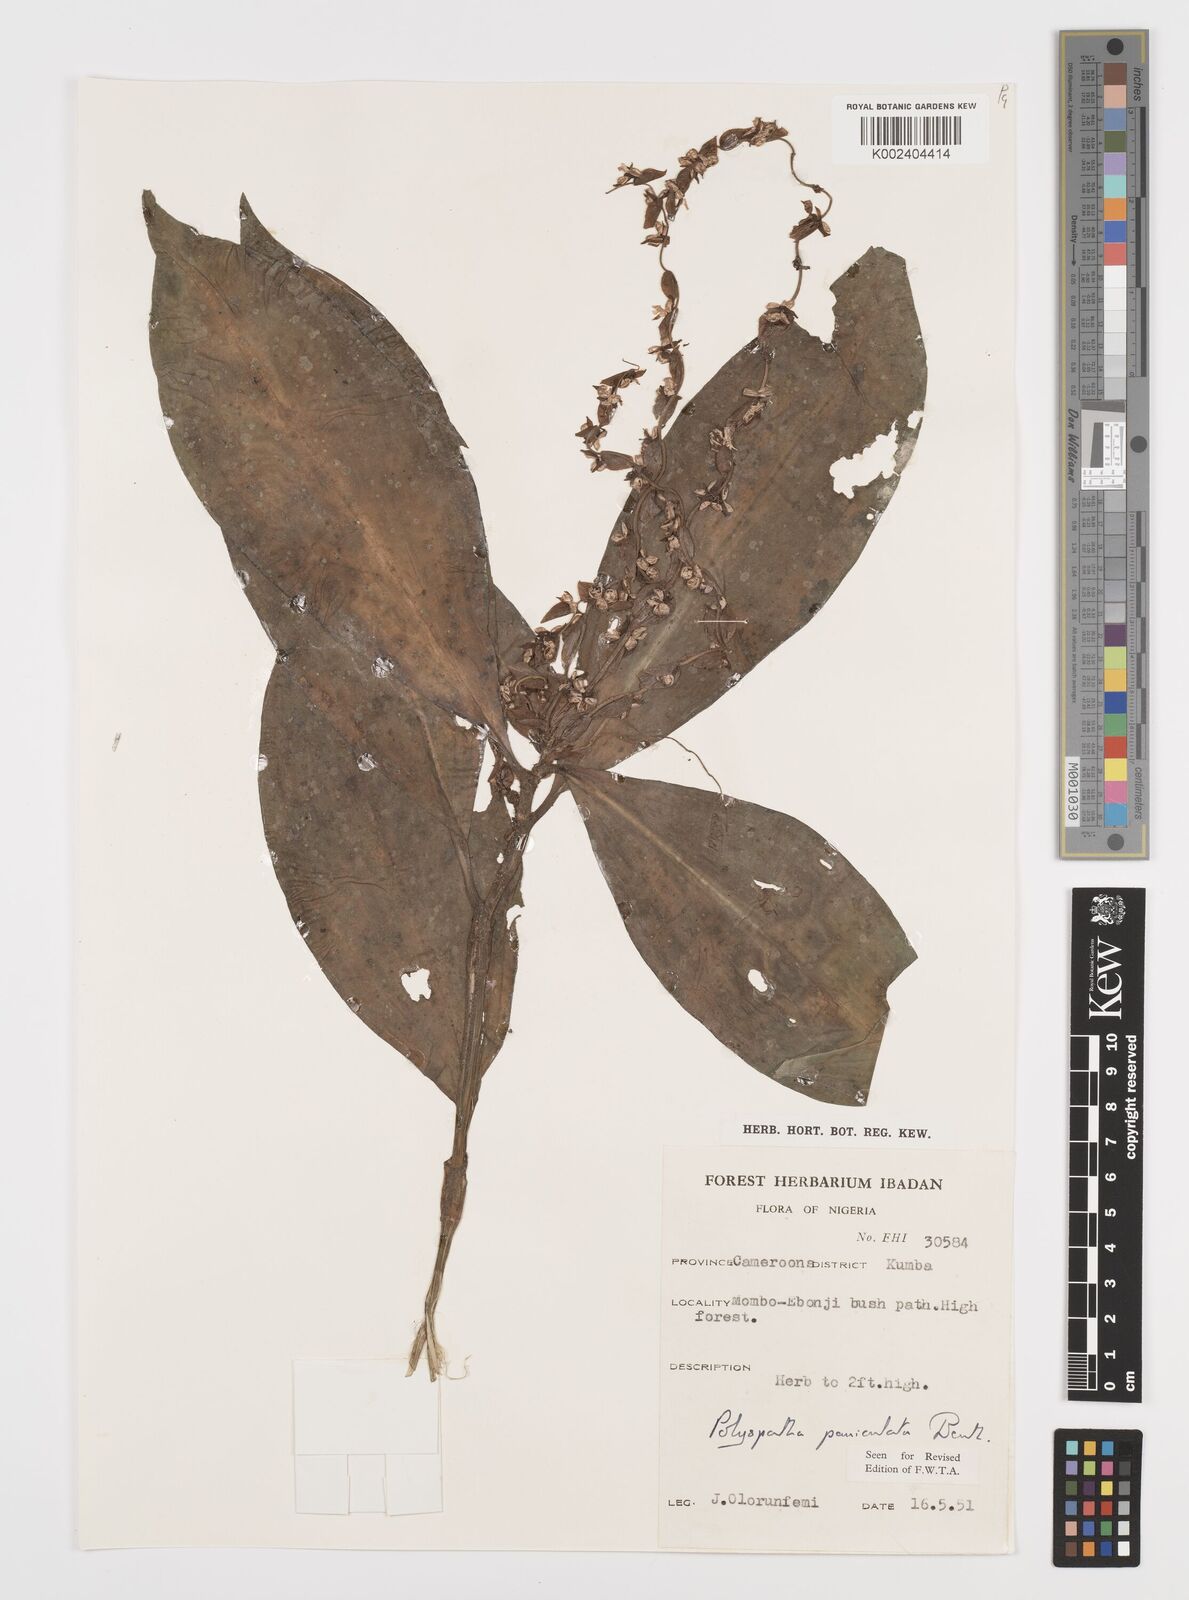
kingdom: Plantae
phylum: Tracheophyta
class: Liliopsida
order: Commelinales
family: Commelinaceae
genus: Polyspatha
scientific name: Polyspatha paniculata
